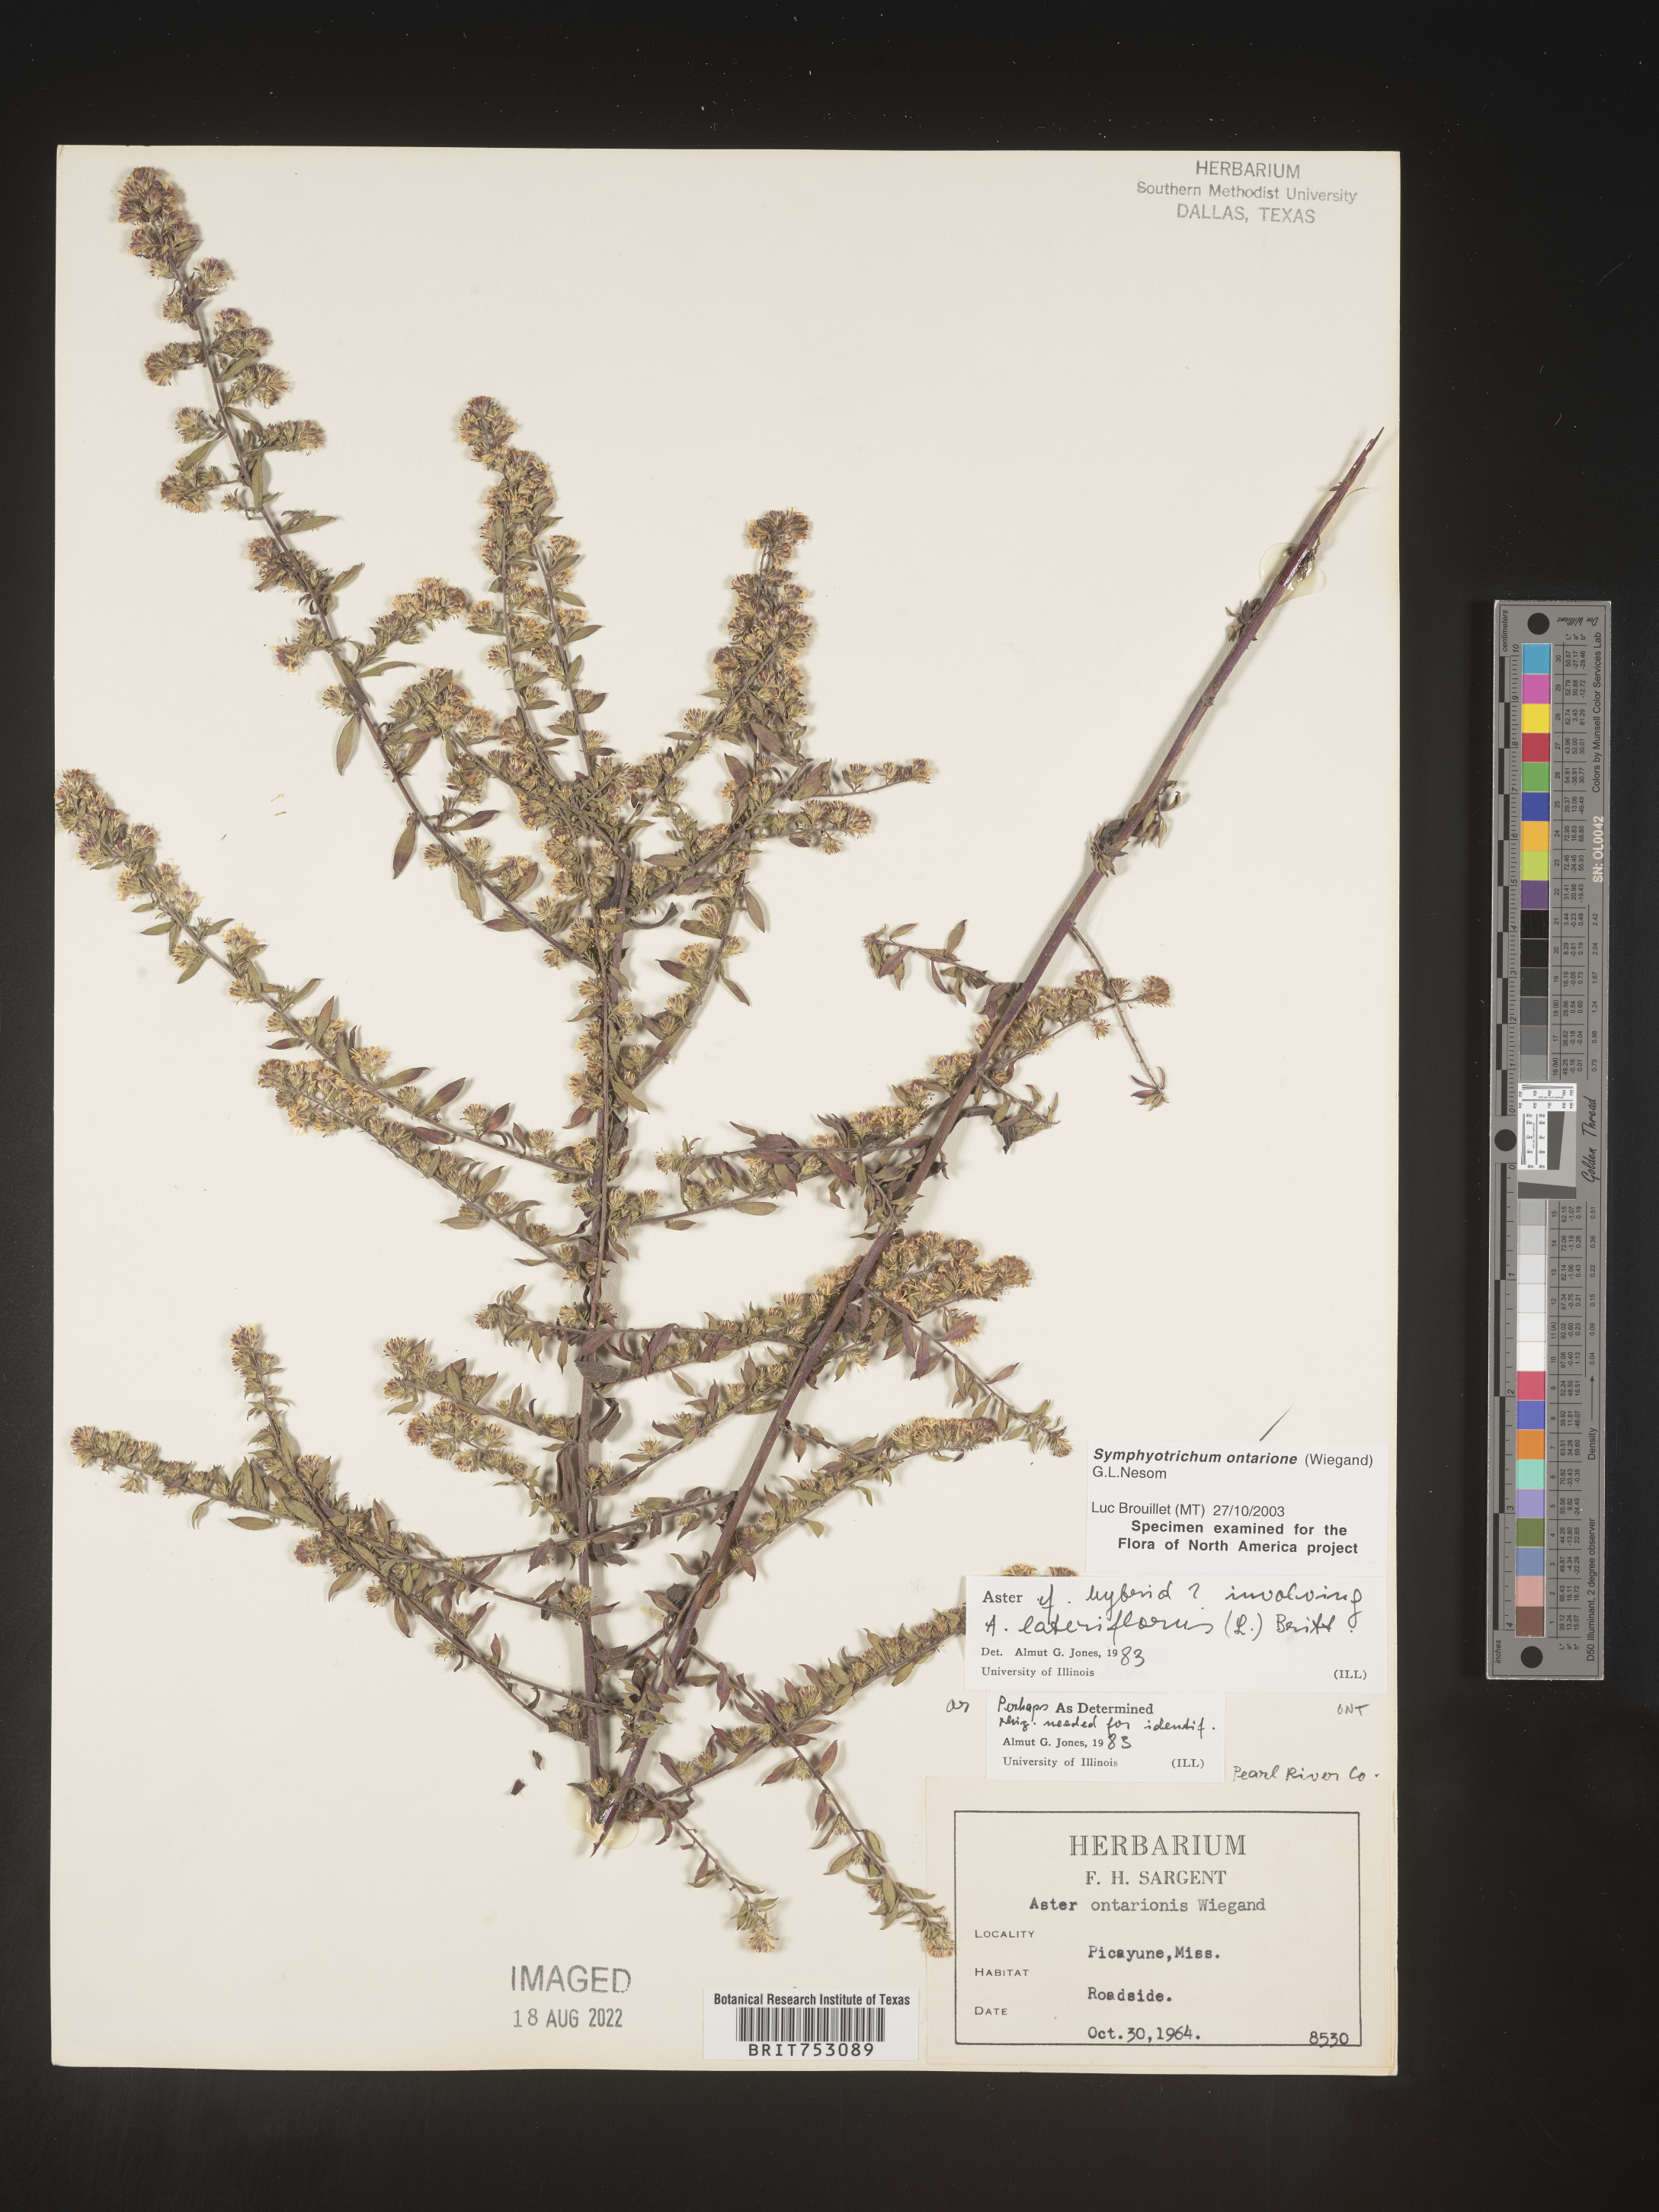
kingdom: Plantae
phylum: Tracheophyta
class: Magnoliopsida
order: Asterales
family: Asteraceae
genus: Symphyotrichum
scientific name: Symphyotrichum ontarionis
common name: Bottomland aster
